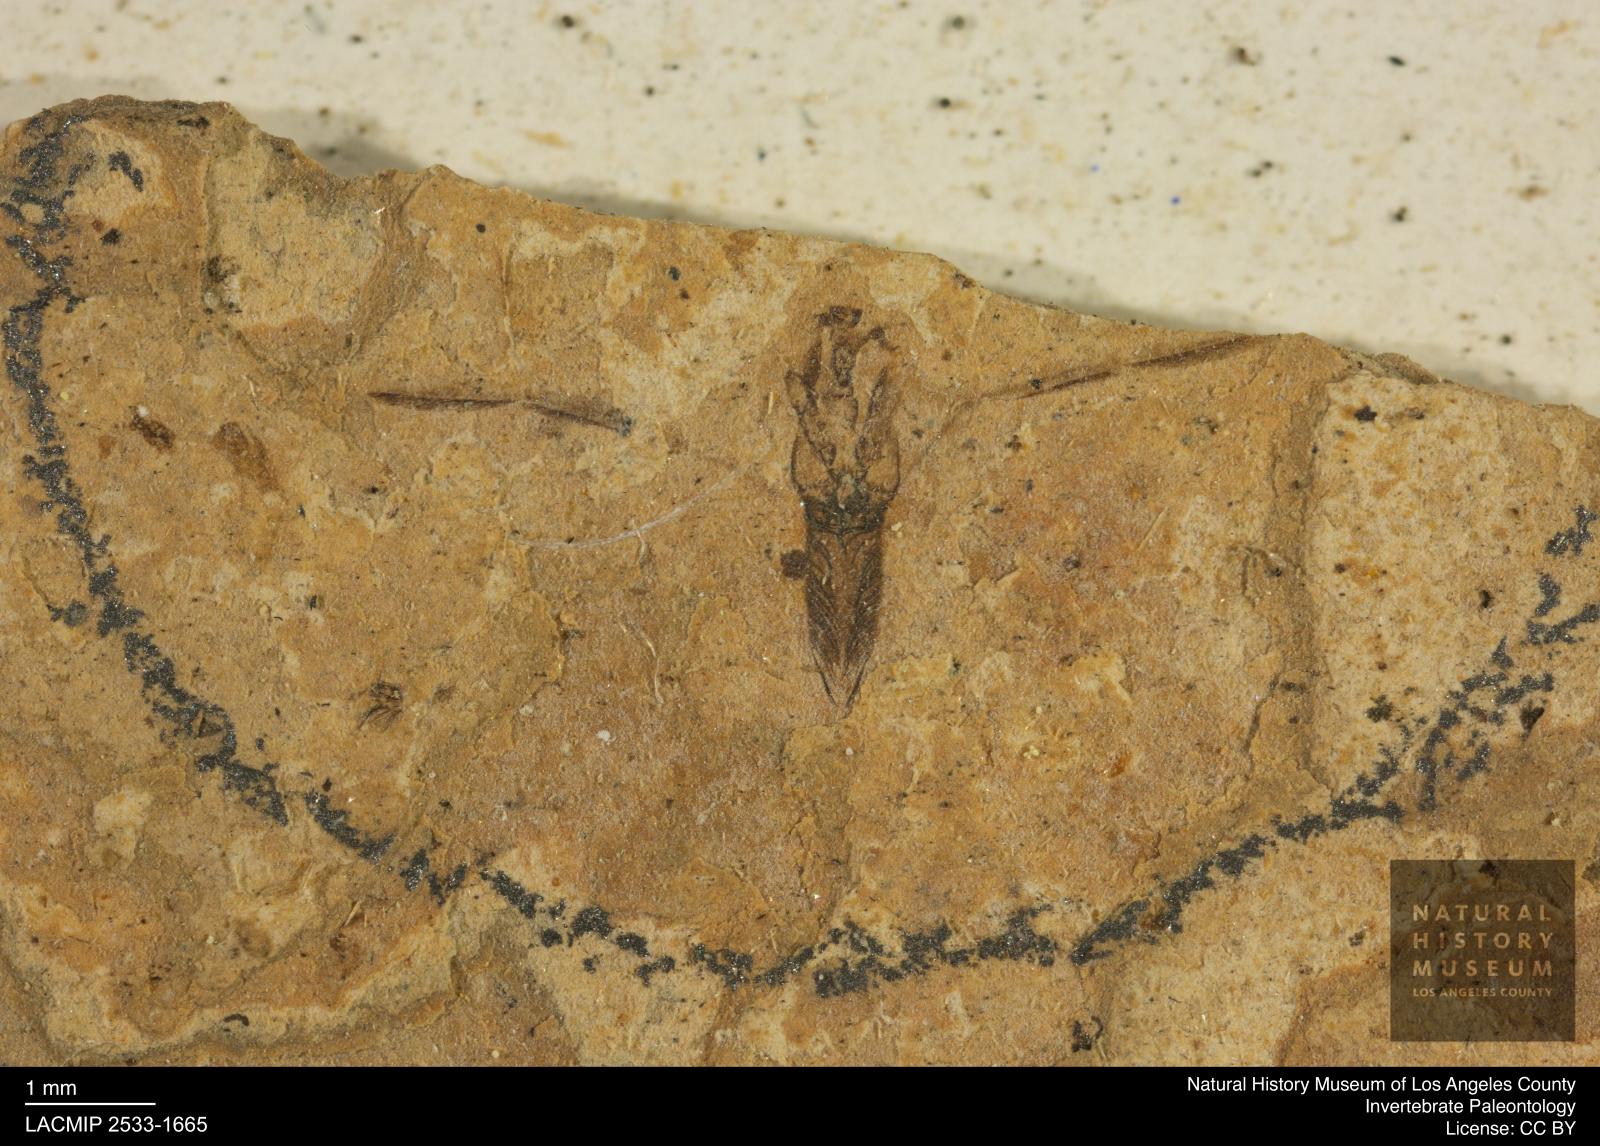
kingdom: Animalia
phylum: Arthropoda
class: Insecta
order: Hemiptera
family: Notonectidae
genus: Notonecta
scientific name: Notonecta
